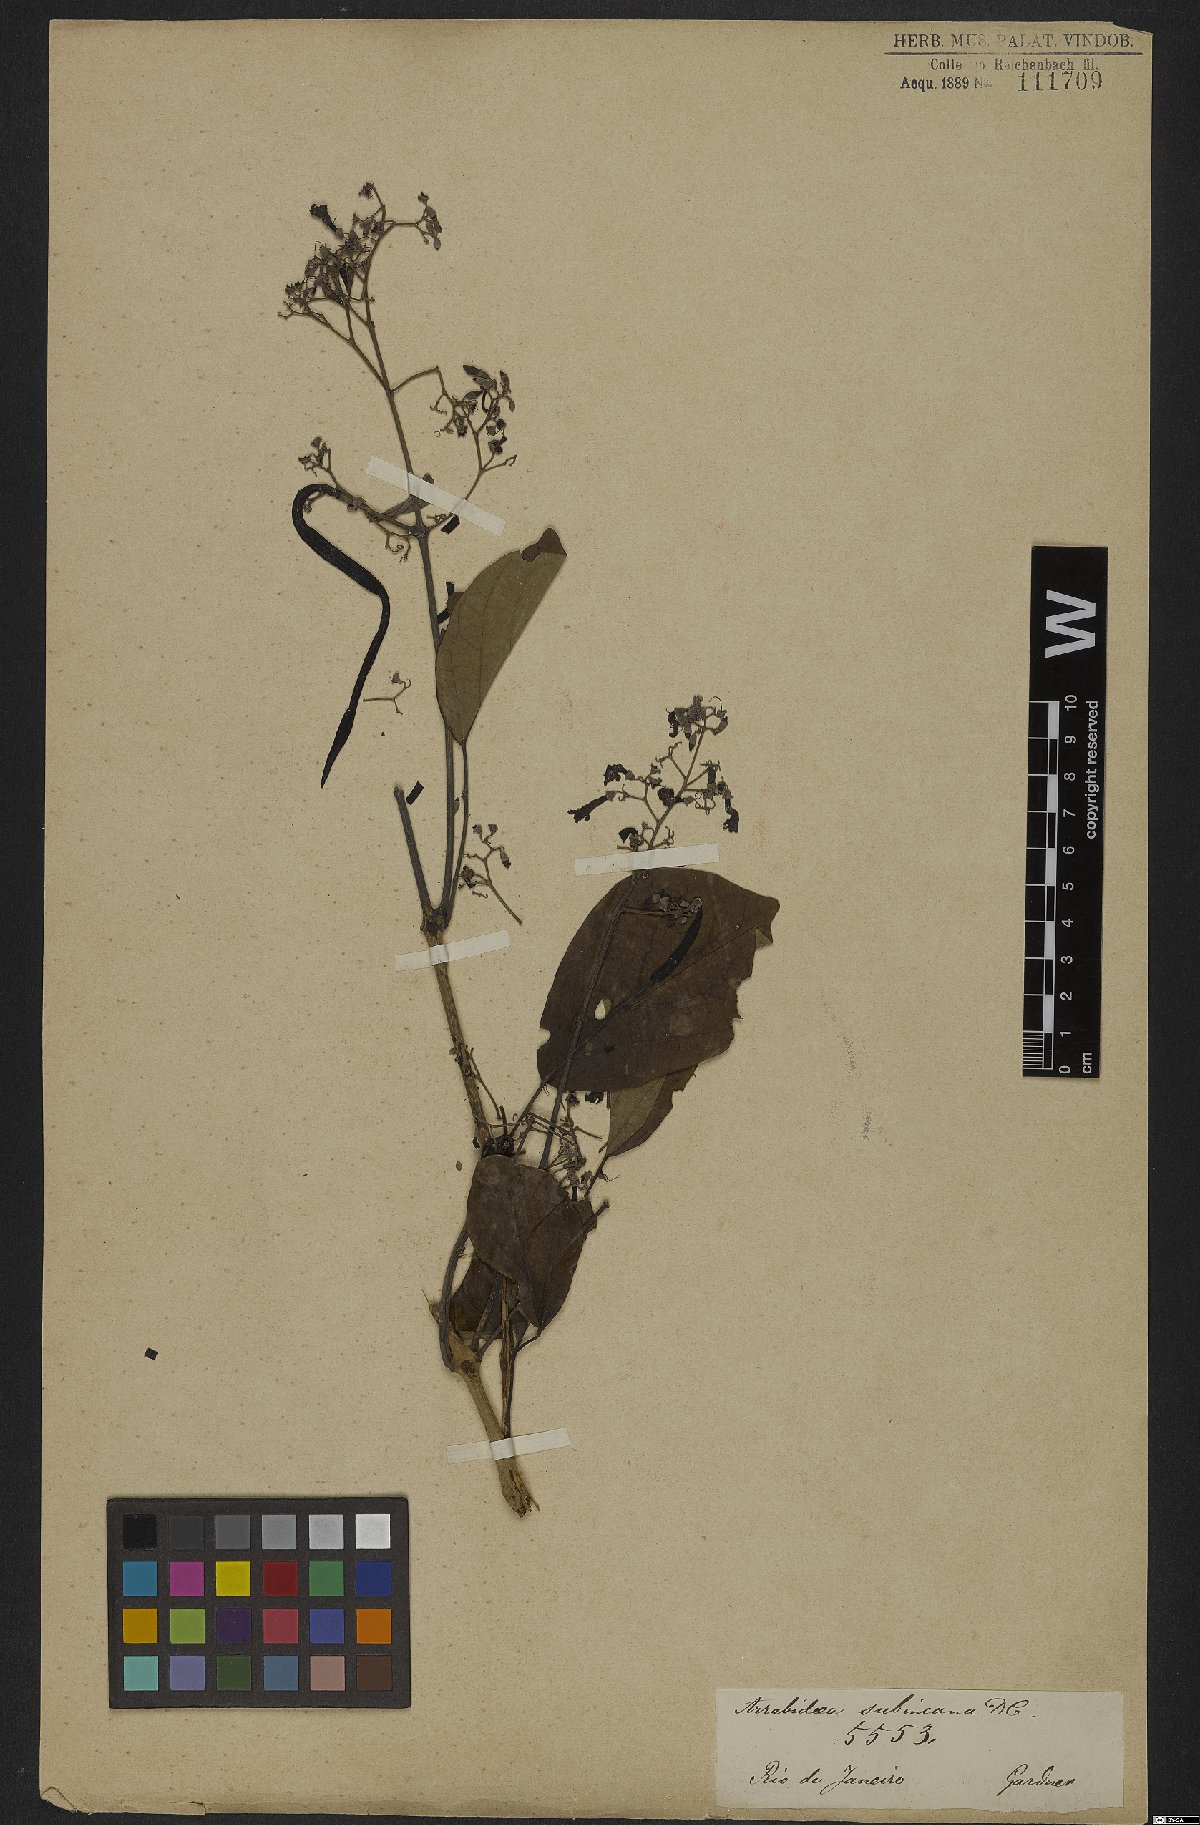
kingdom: Plantae
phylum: Tracheophyta
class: Magnoliopsida
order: Lamiales
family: Bignoniaceae
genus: Fridericia
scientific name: Fridericia subincana
